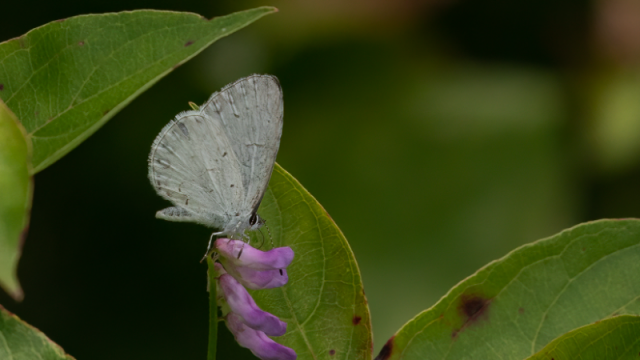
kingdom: Animalia
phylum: Arthropoda
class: Insecta
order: Lepidoptera
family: Lycaenidae
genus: Cyaniris
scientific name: Cyaniris neglecta
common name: Summer Azure
